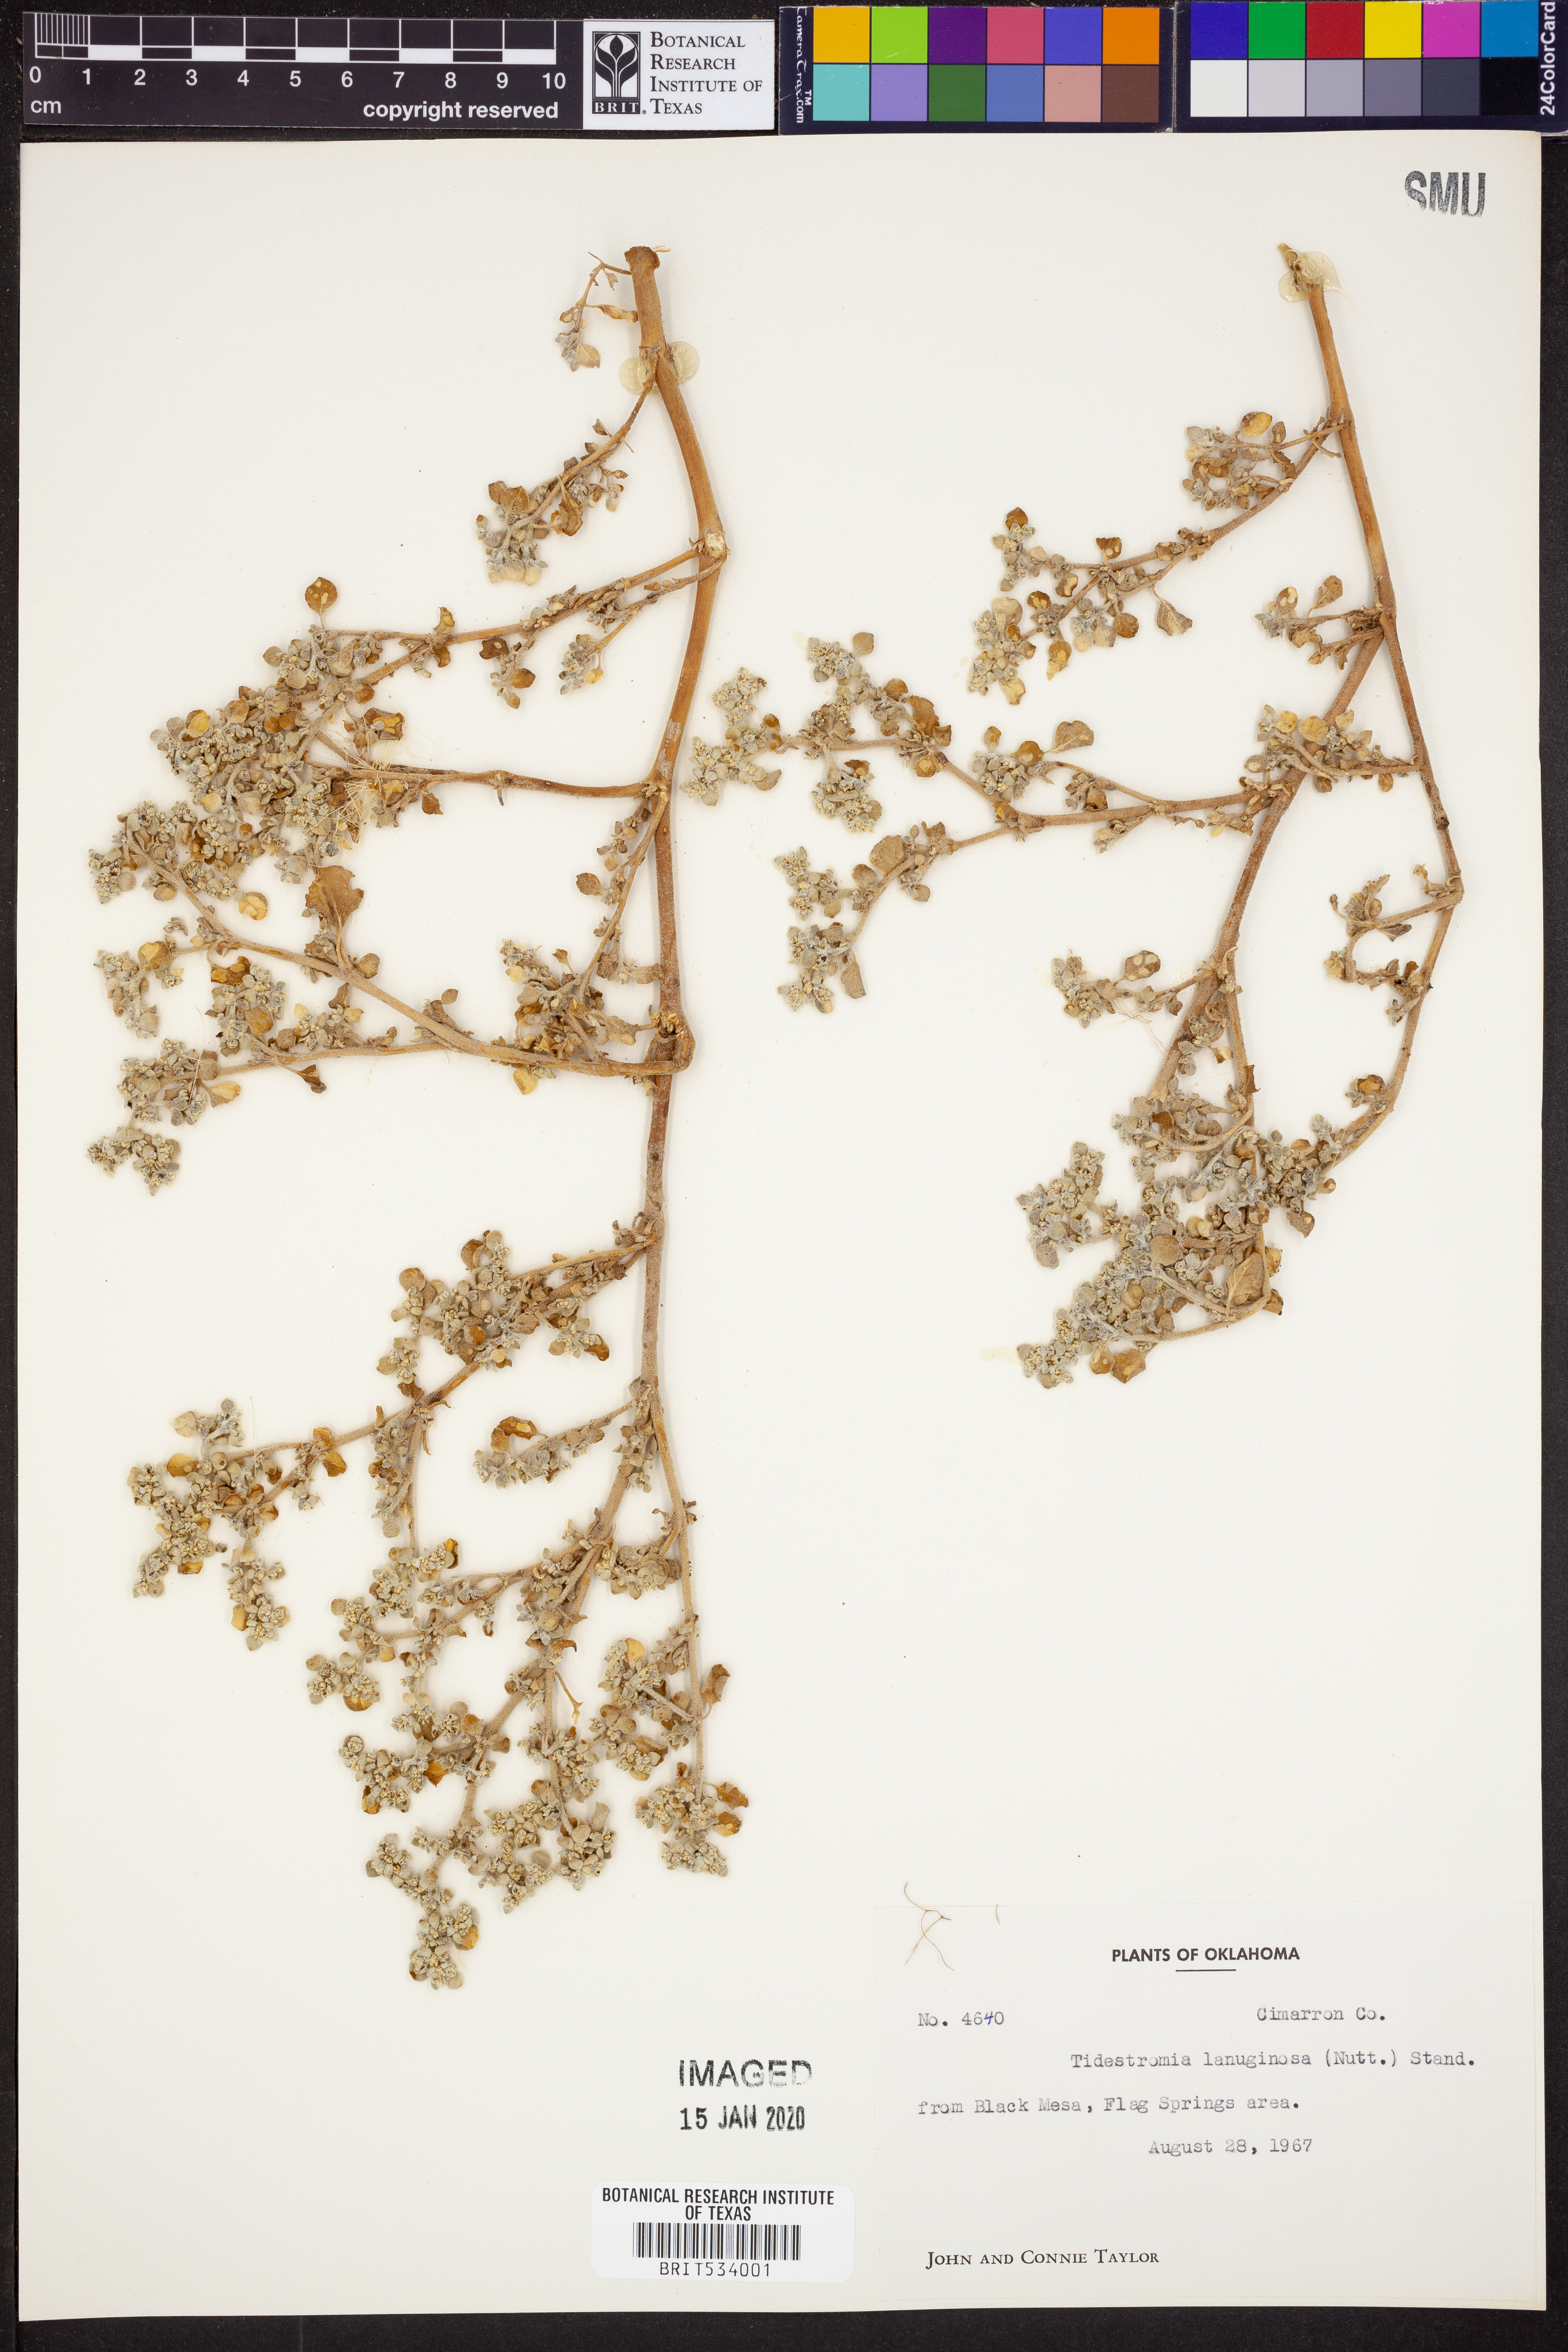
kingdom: Plantae
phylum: Tracheophyta
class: Magnoliopsida
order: Caryophyllales
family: Amaranthaceae
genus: Tidestromia
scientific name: Tidestromia lanuginosa
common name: Woolly tidestromia
